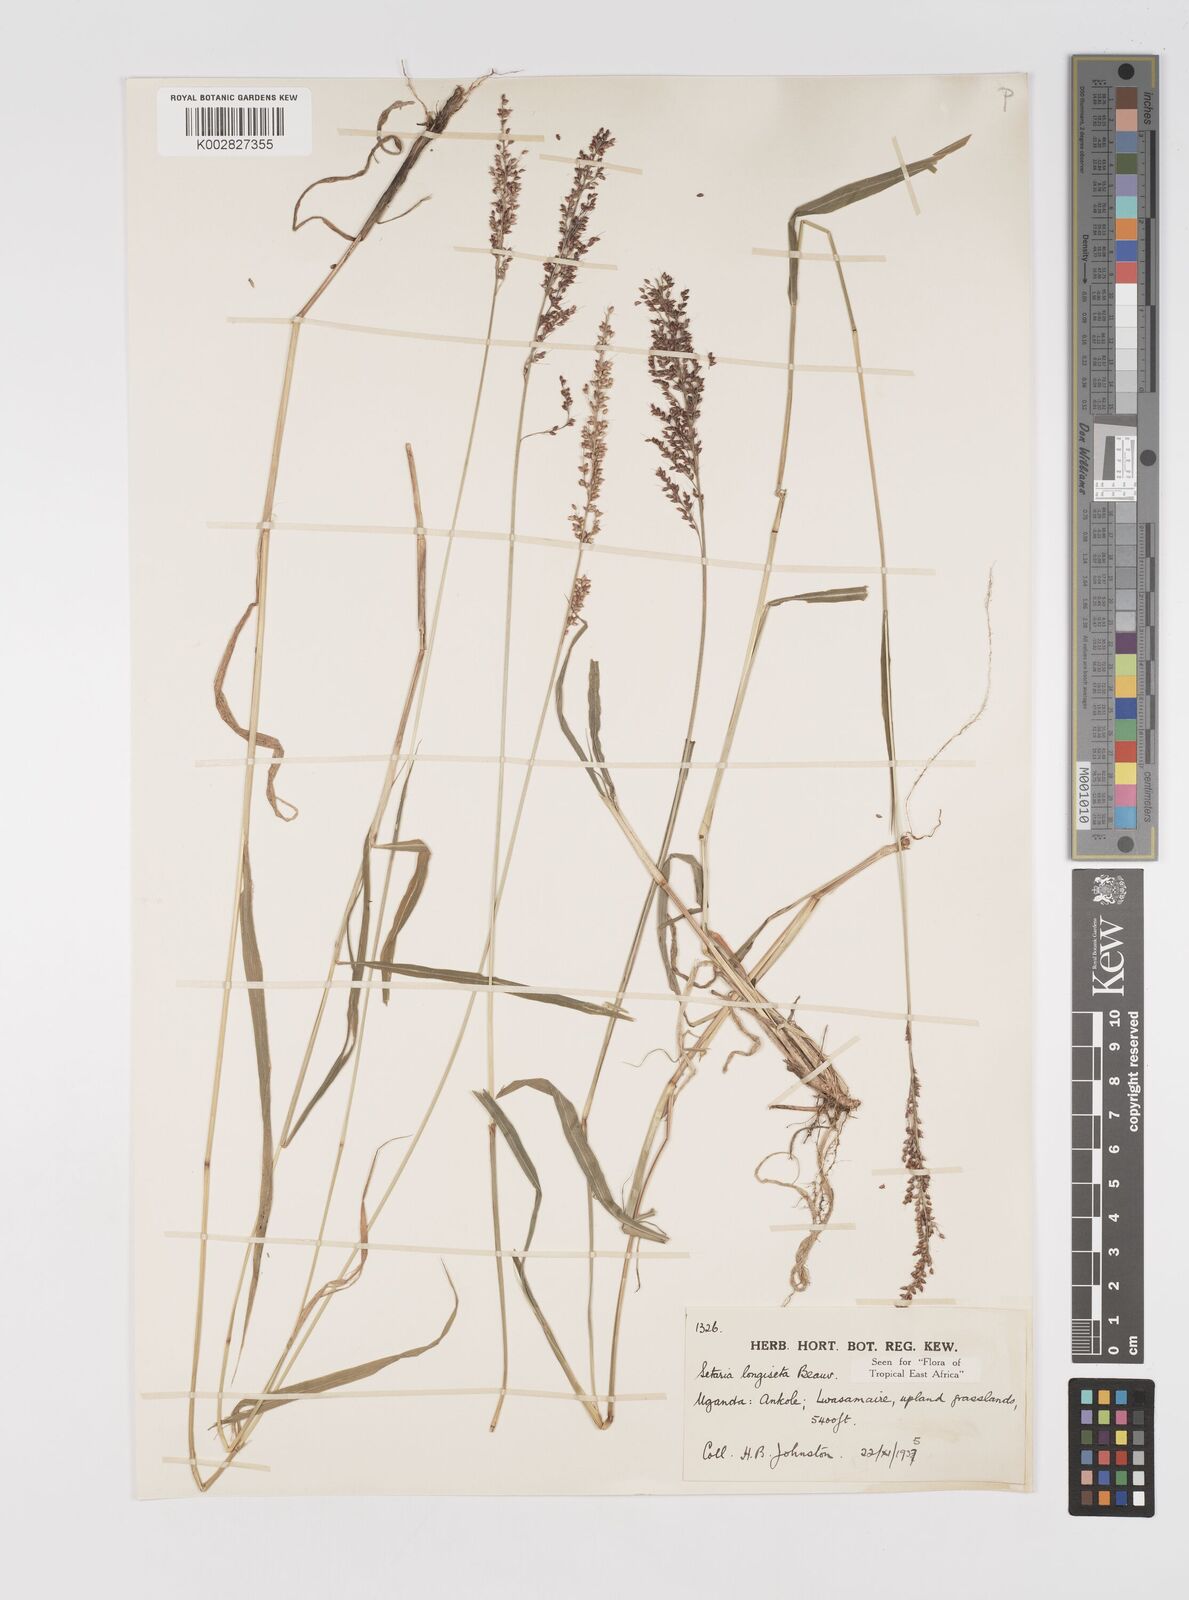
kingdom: Plantae
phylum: Tracheophyta
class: Liliopsida
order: Poales
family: Poaceae
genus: Setaria
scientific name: Setaria longiseta
